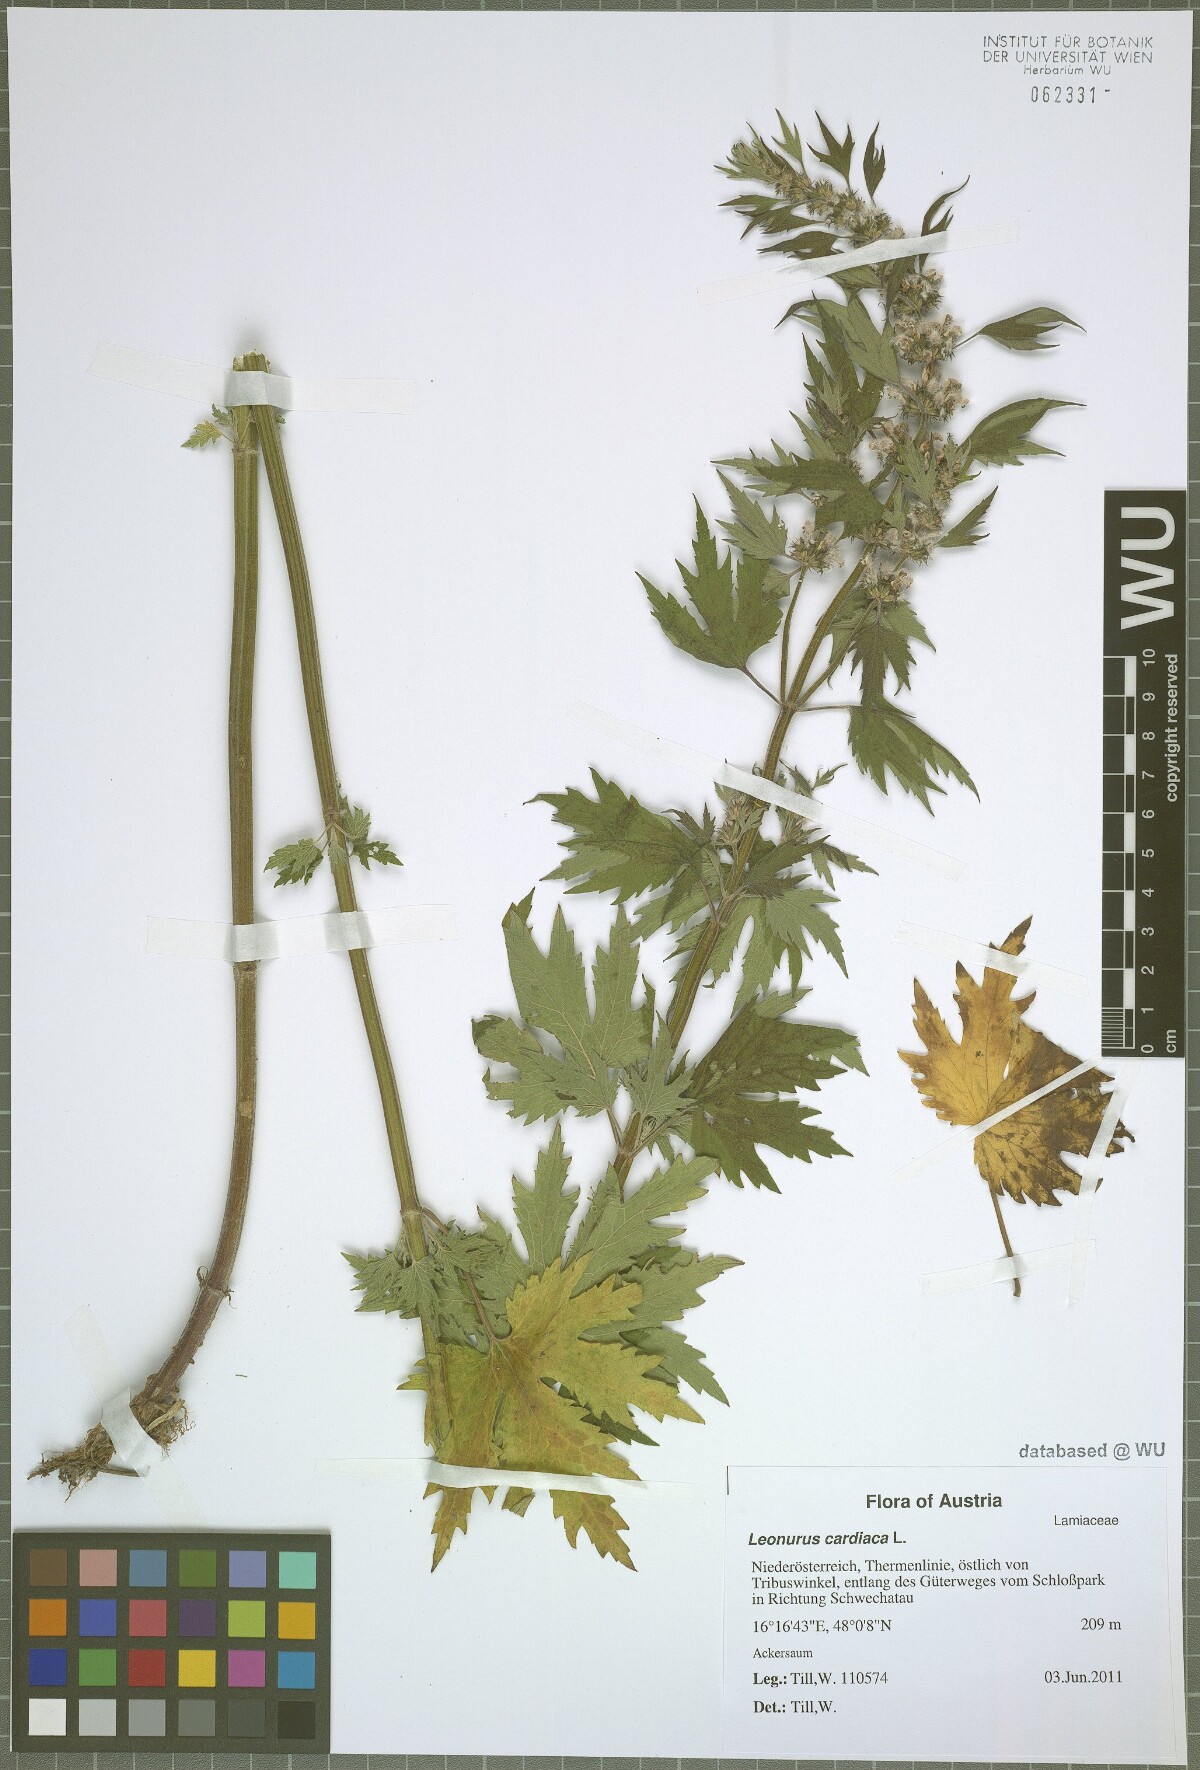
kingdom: Plantae
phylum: Tracheophyta
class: Magnoliopsida
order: Lamiales
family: Lamiaceae
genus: Leonurus
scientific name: Leonurus cardiaca
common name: Motherwort
